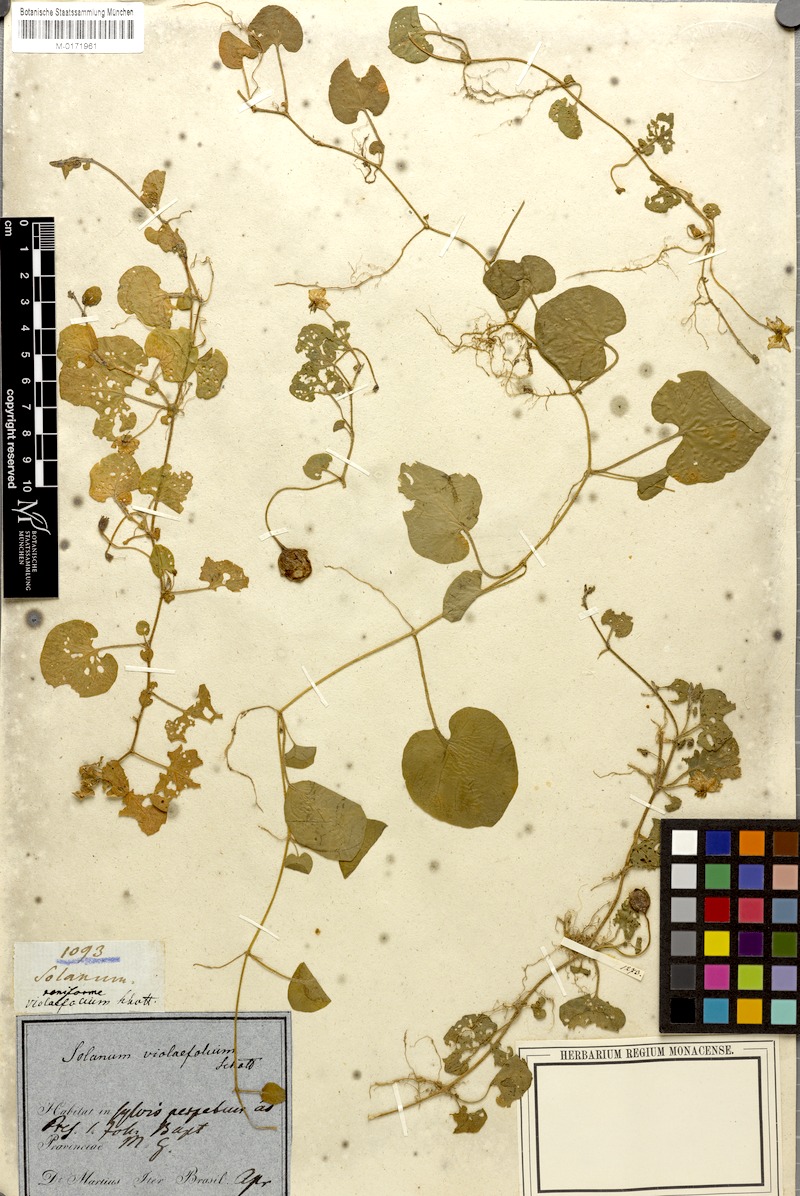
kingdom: Plantae
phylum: Tracheophyta
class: Magnoliopsida
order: Solanales
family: Solanaceae
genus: Lycianthes
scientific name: Lycianthes repens
